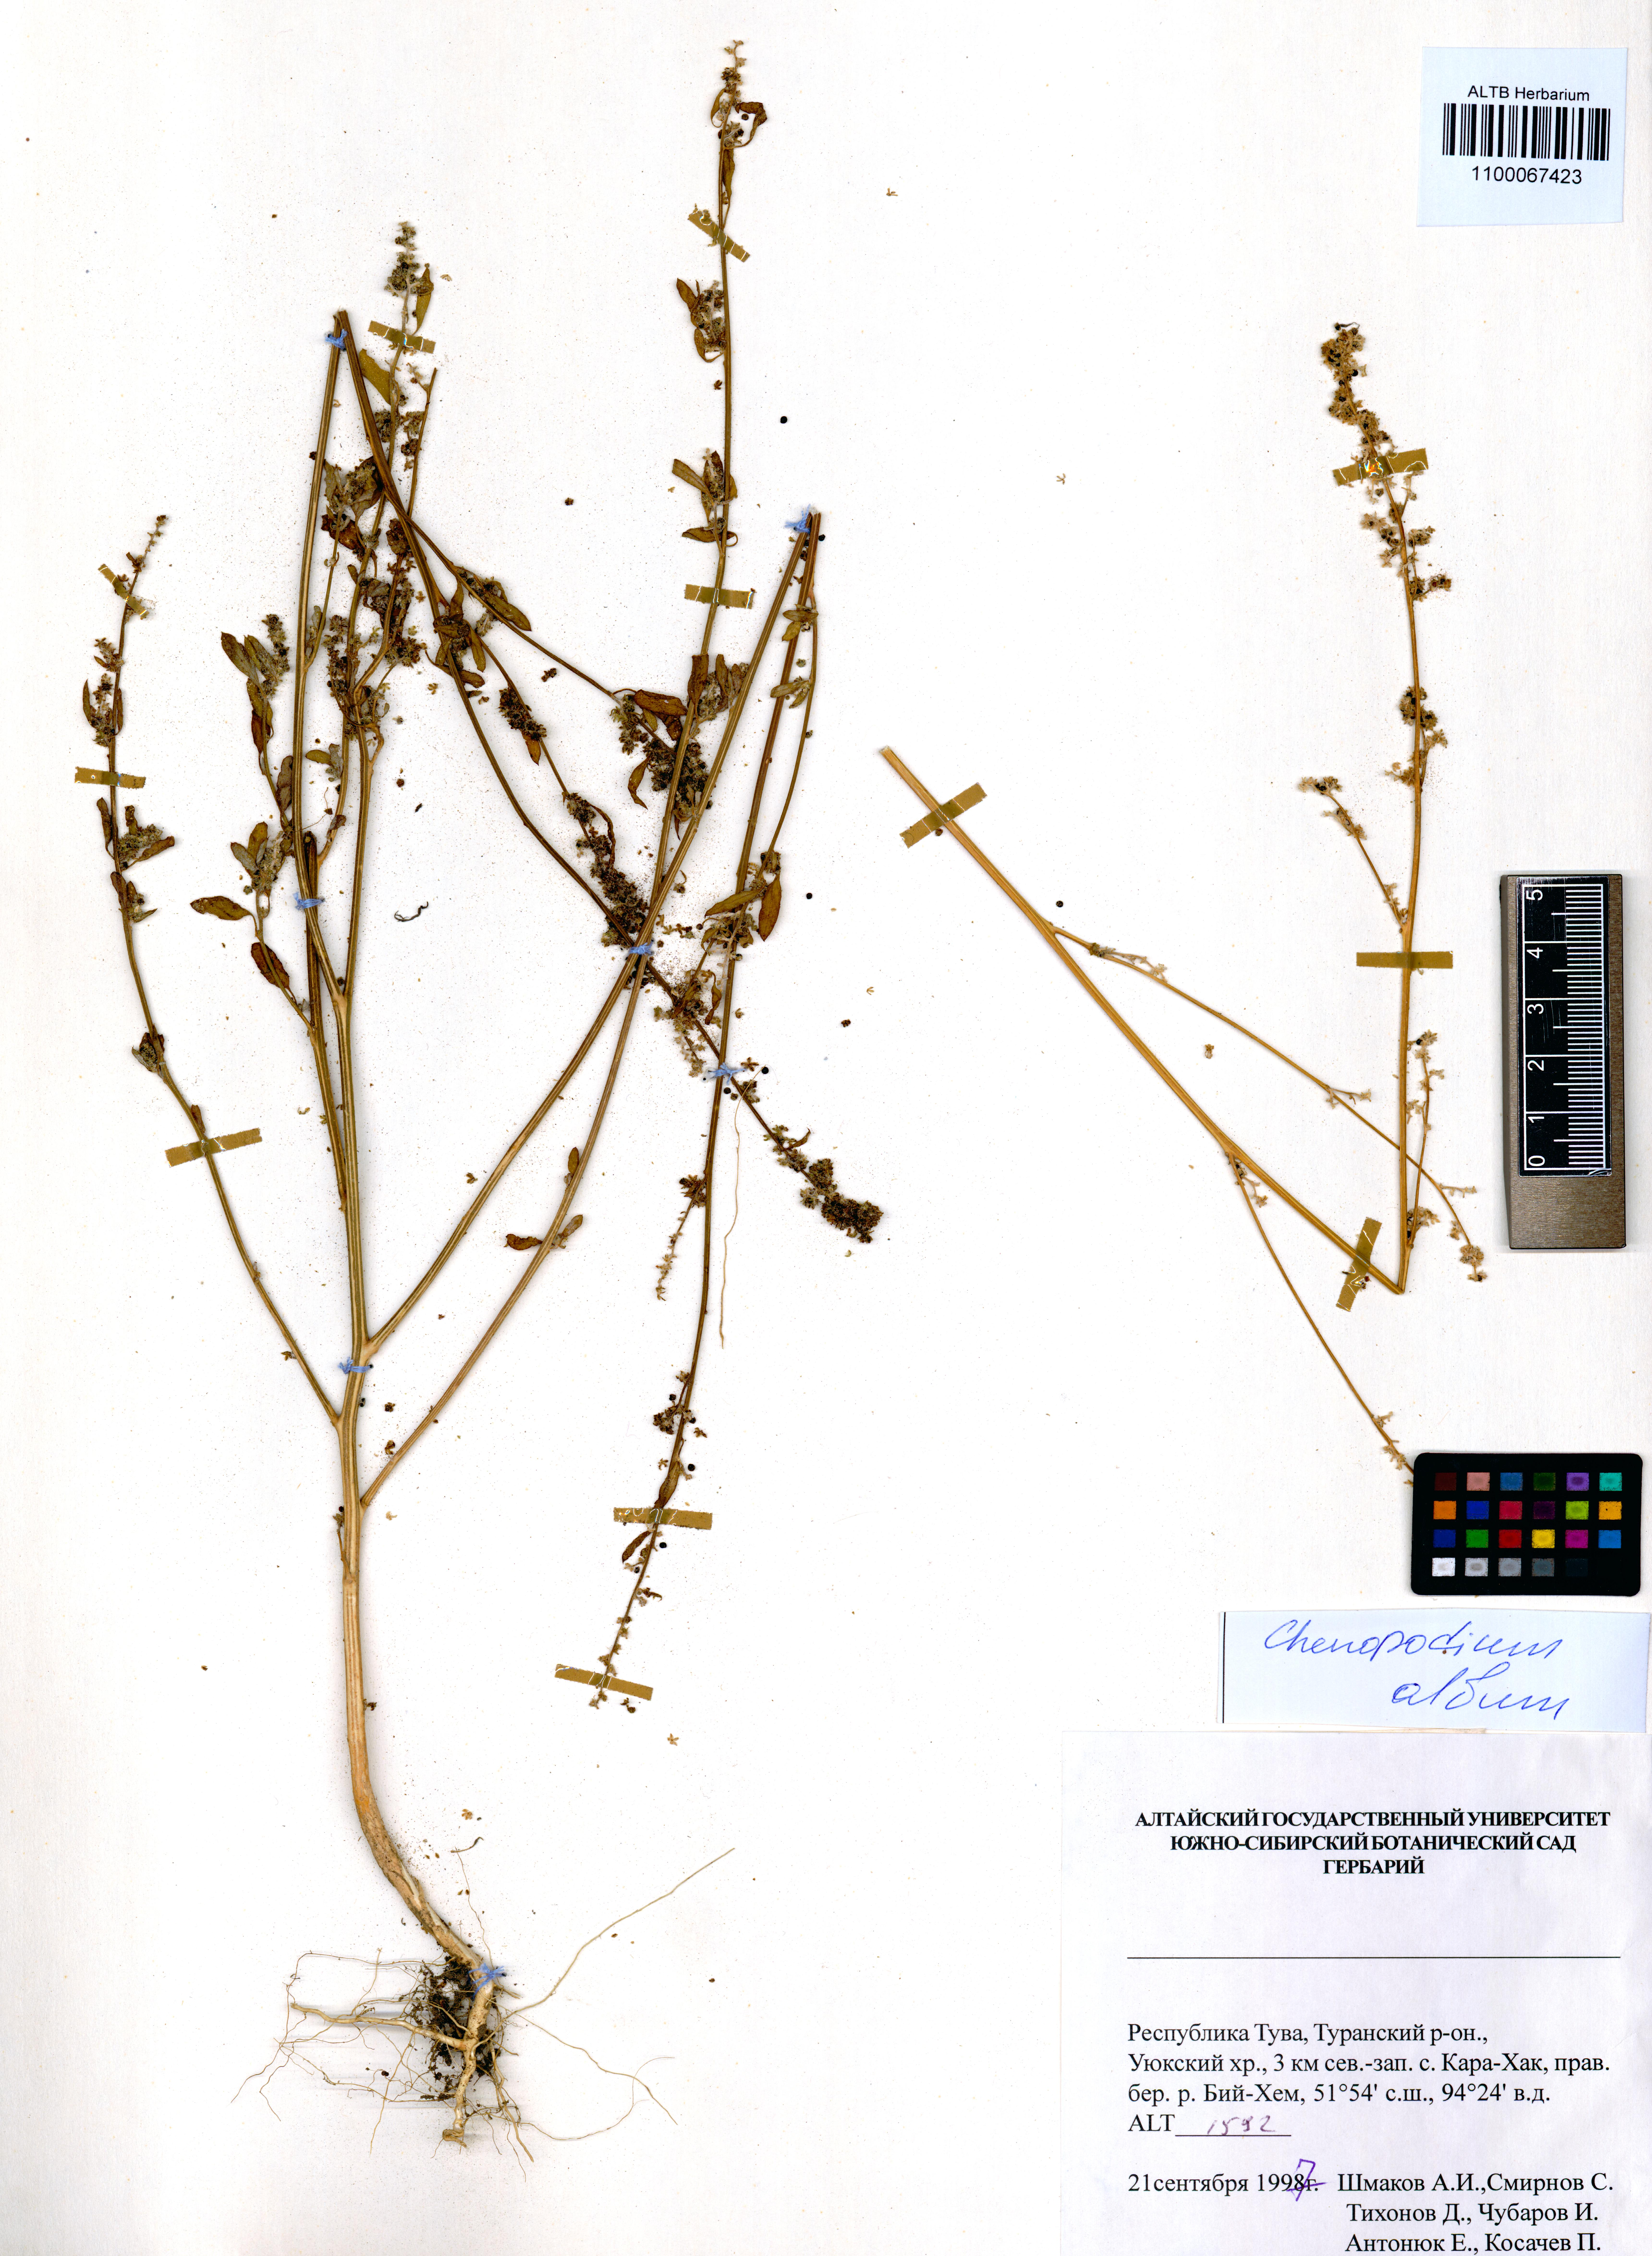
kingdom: Plantae
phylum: Tracheophyta
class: Magnoliopsida
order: Caryophyllales
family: Amaranthaceae
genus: Chenopodium
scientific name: Chenopodium album
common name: Fat-hen
